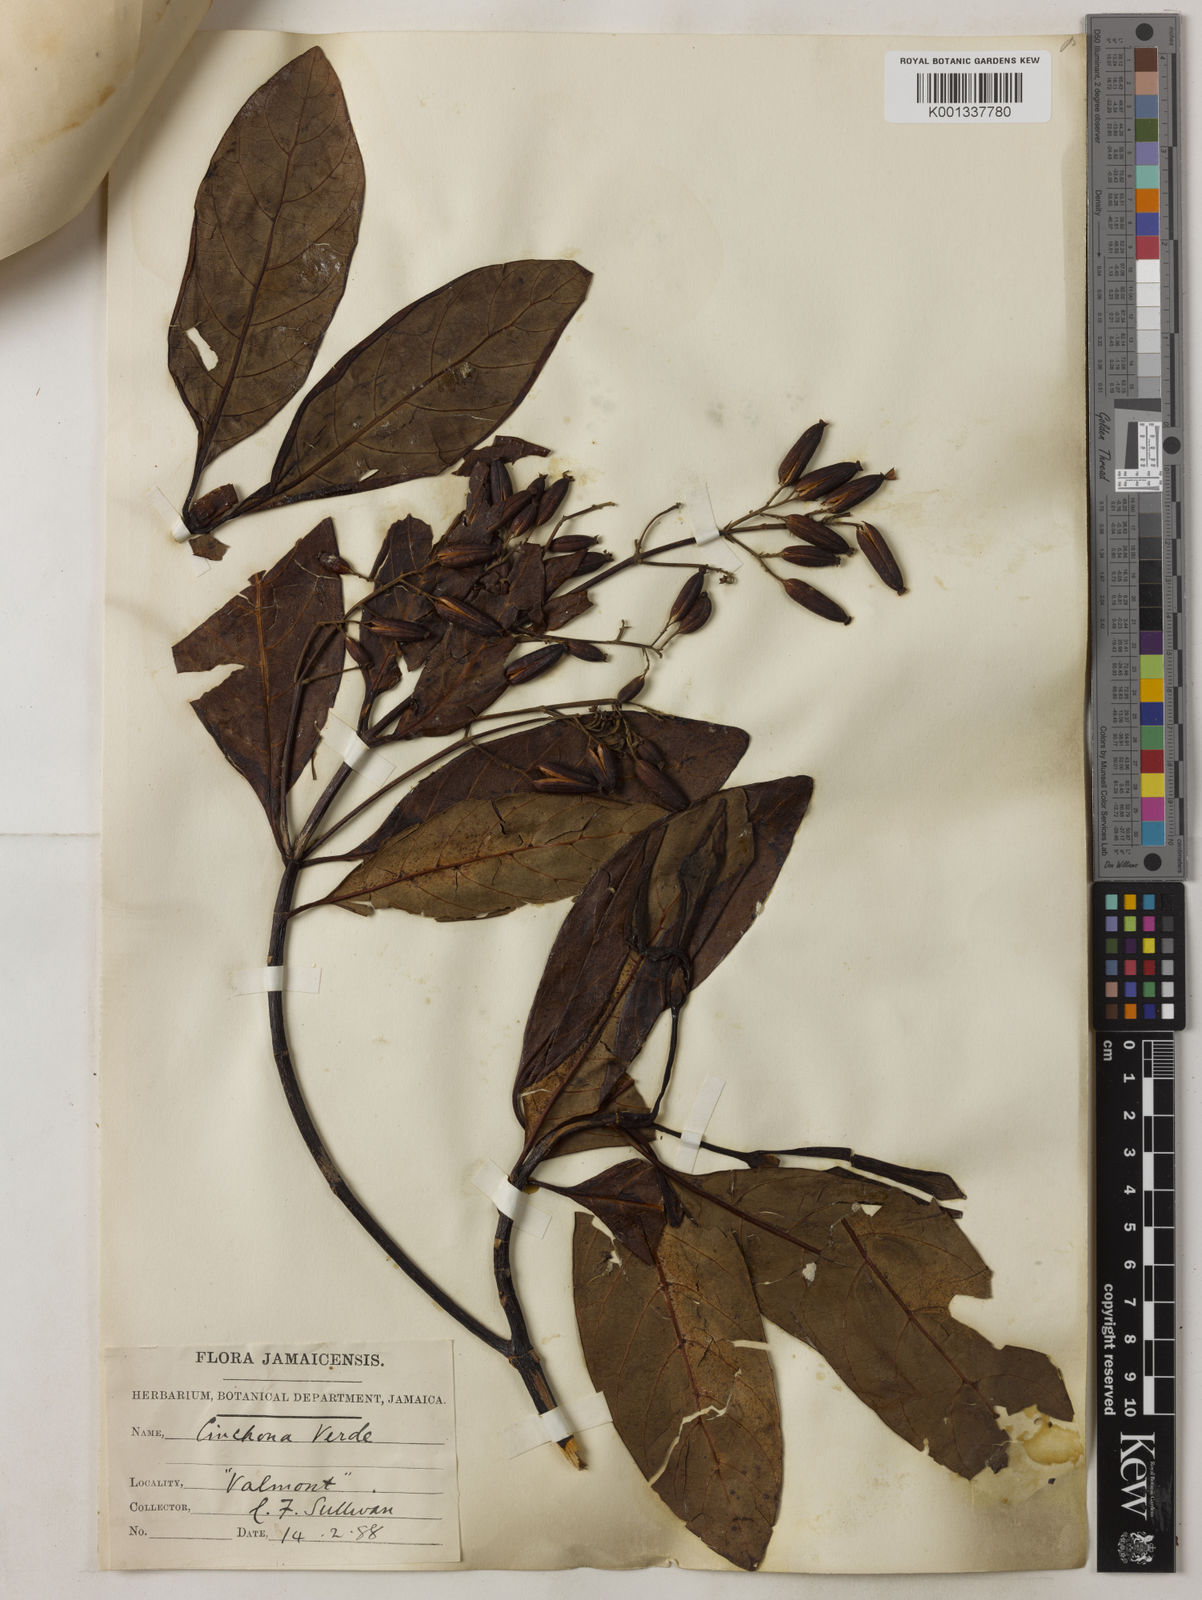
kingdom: Plantae
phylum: Tracheophyta
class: Magnoliopsida
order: Gentianales
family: Rubiaceae
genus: Cinchona
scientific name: Cinchona
